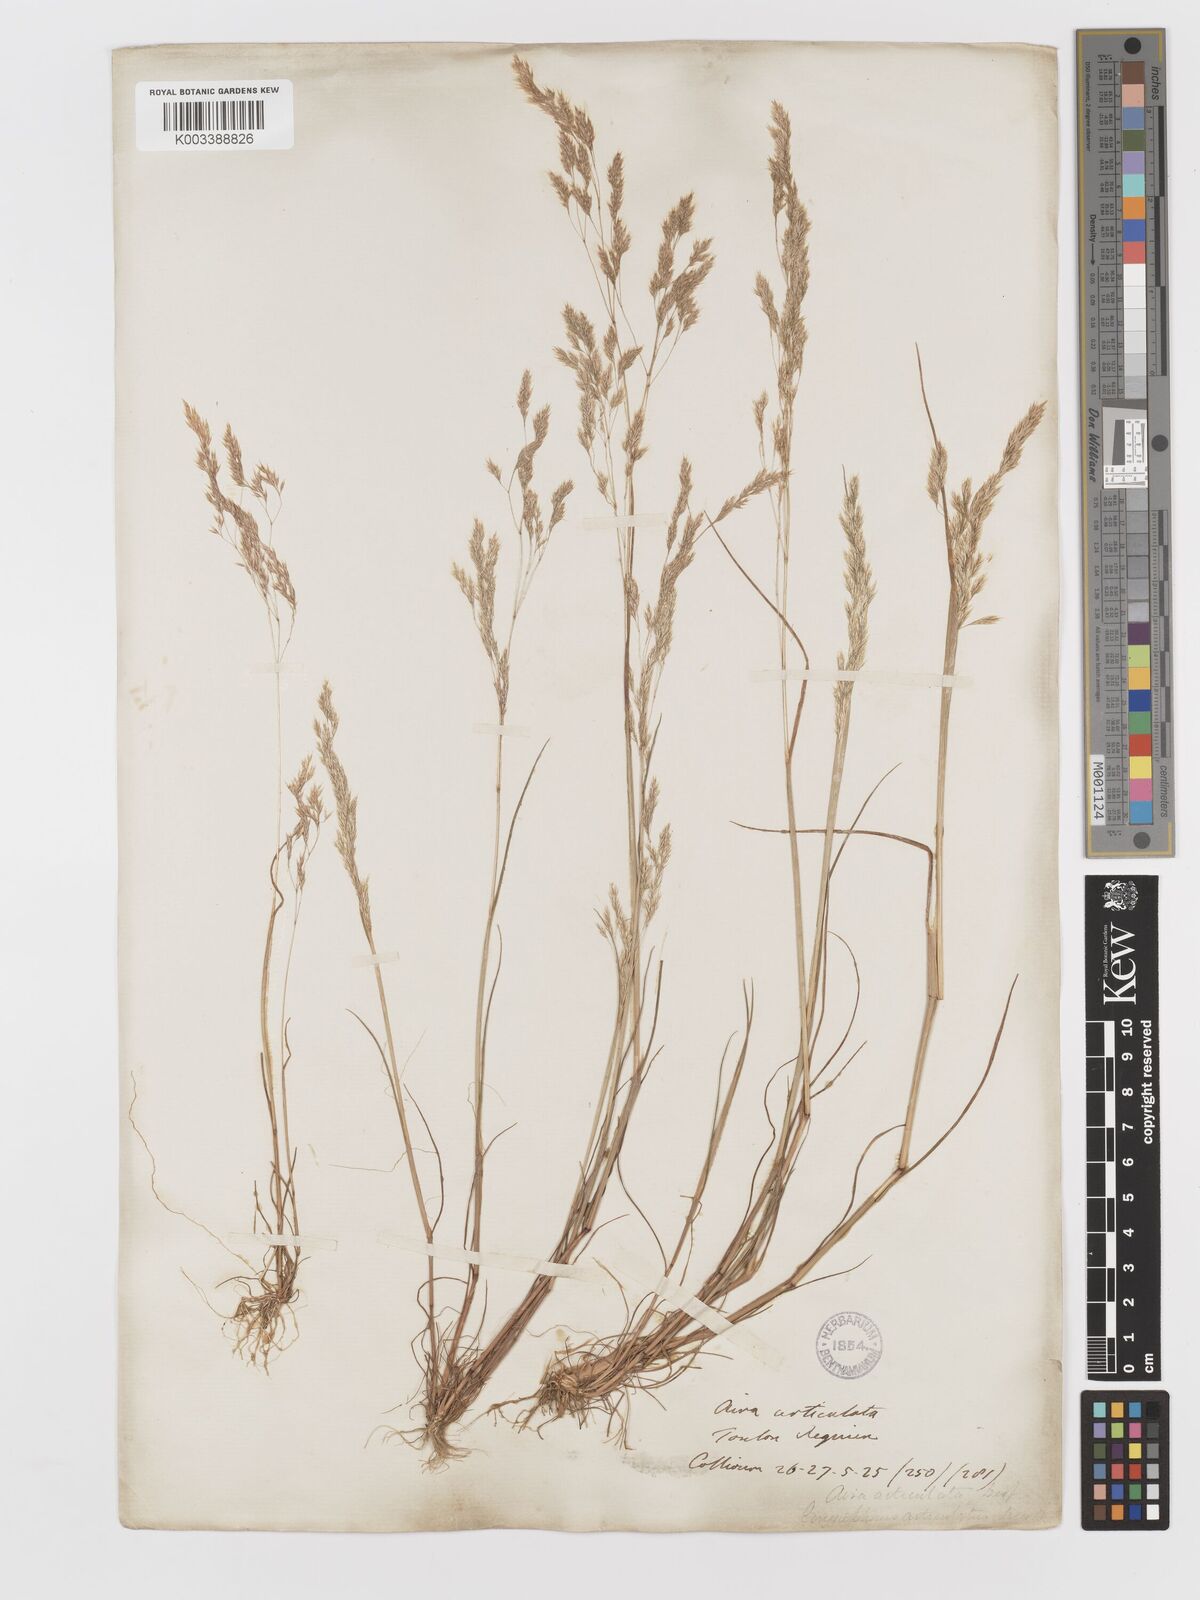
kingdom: Plantae
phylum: Tracheophyta
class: Liliopsida
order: Poales
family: Poaceae
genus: Corynephorus
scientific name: Corynephorus divaricatus
